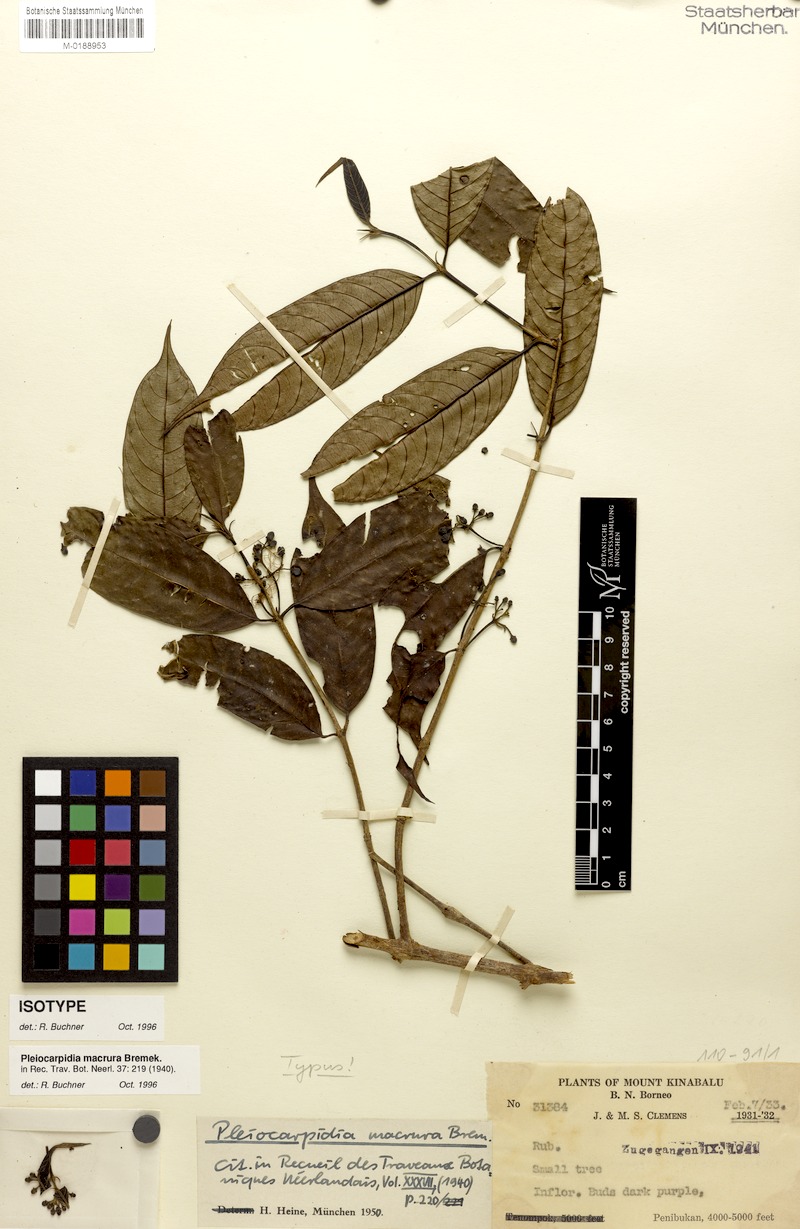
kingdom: Plantae
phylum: Tracheophyta
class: Magnoliopsida
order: Gentianales
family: Rubiaceae
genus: Urophyllum
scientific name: Urophyllum macrurum
